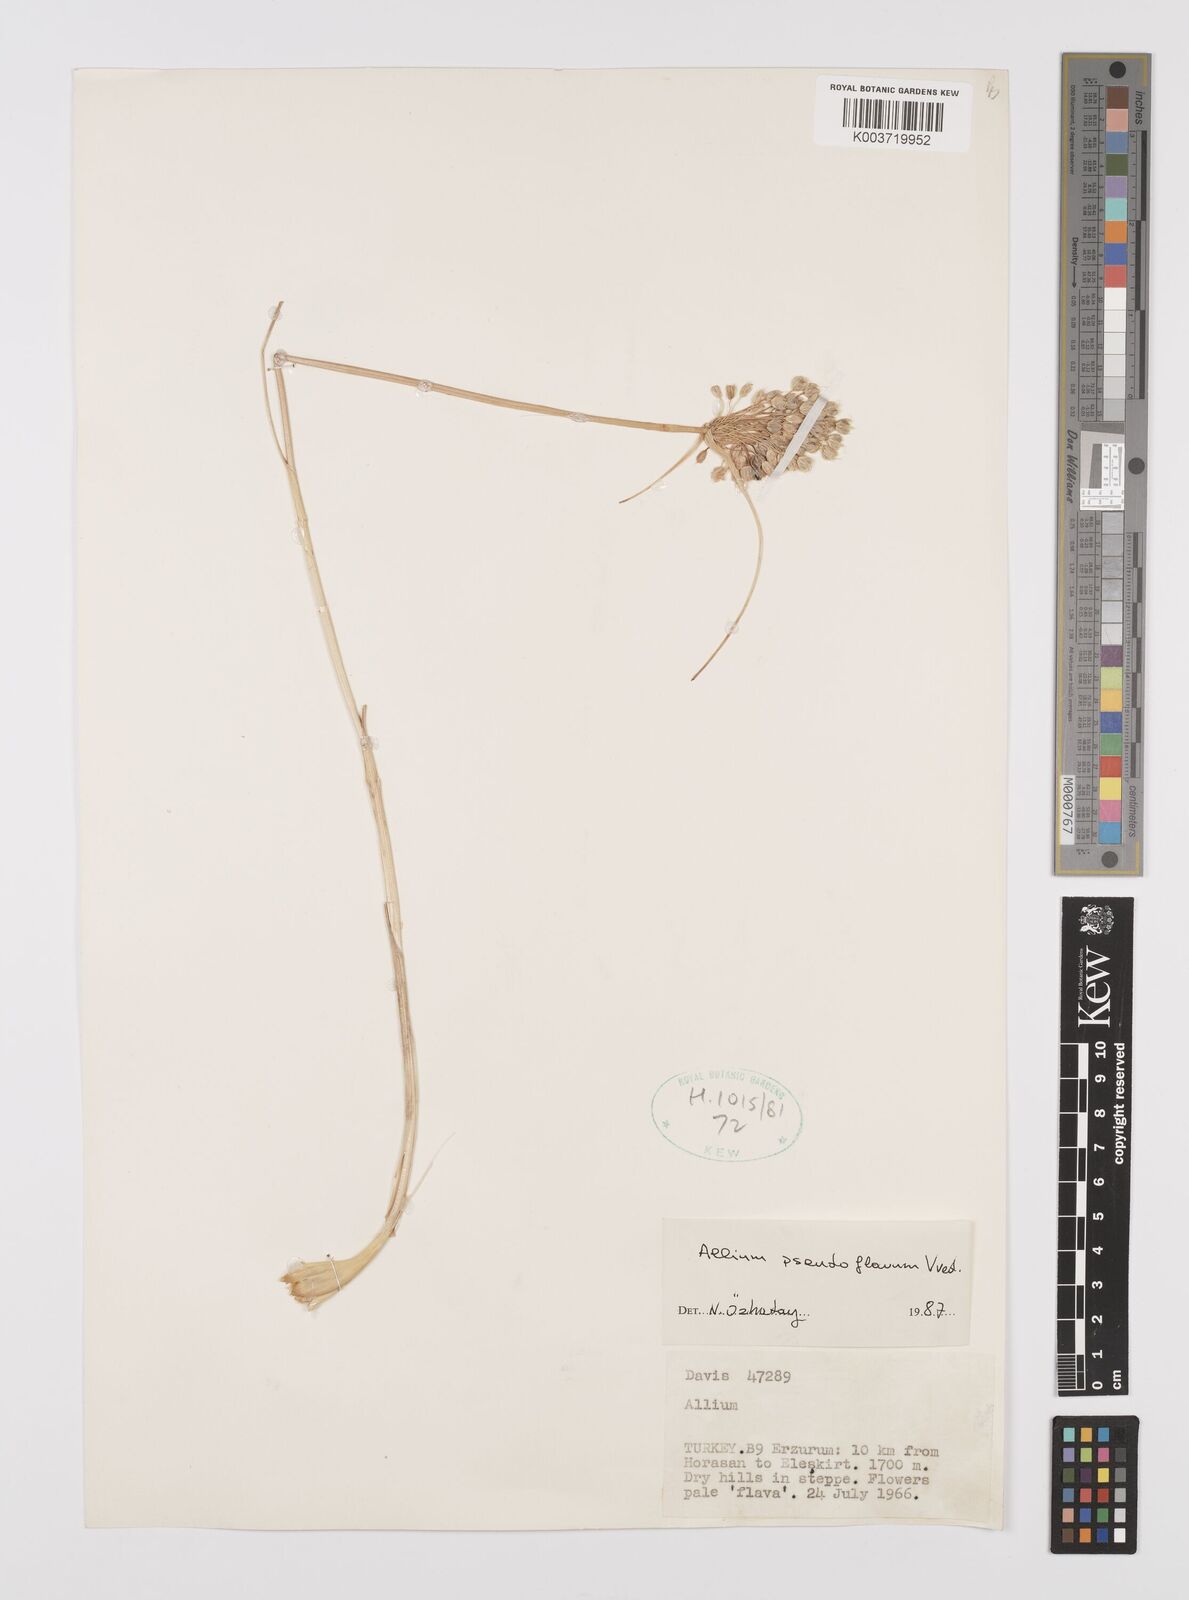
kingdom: Plantae
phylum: Tracheophyta
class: Liliopsida
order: Asparagales
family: Amaryllidaceae
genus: Allium
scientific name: Allium pseudoflavum
